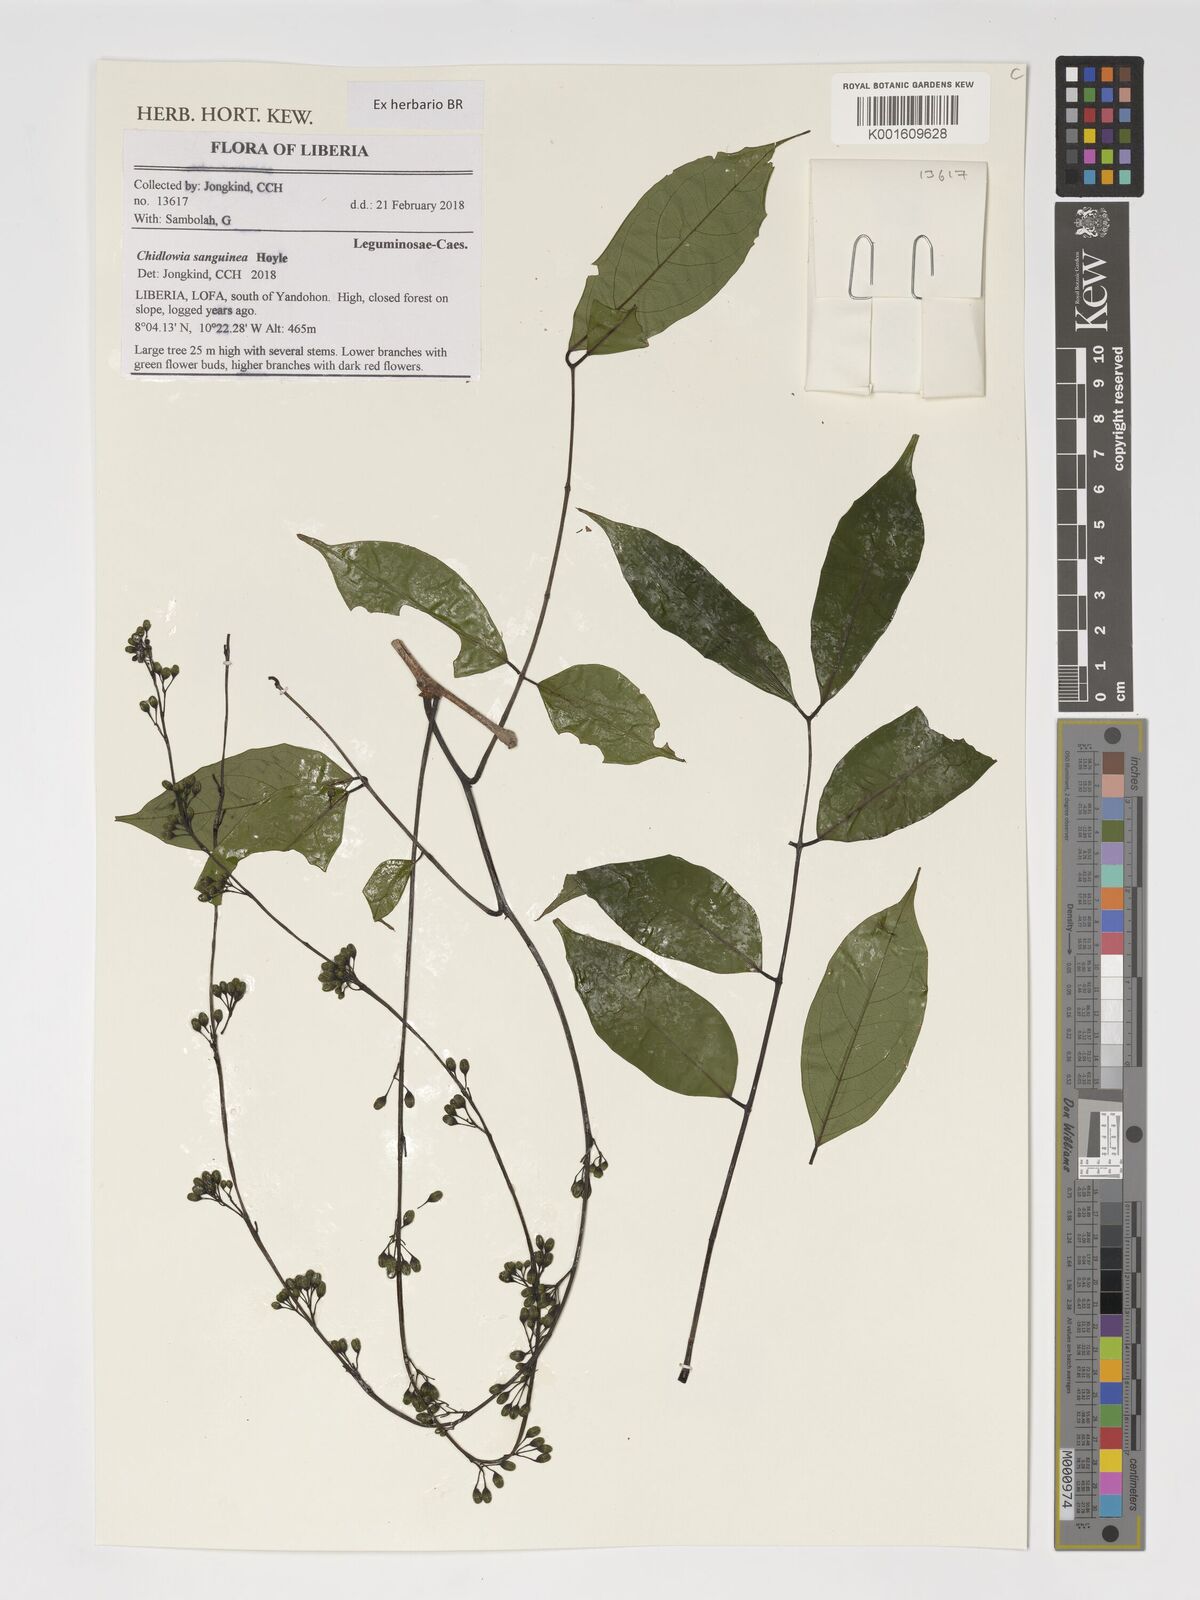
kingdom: Plantae
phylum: Tracheophyta
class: Magnoliopsida
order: Fabales
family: Fabaceae
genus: Chidlowia
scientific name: Chidlowia sanguinea
